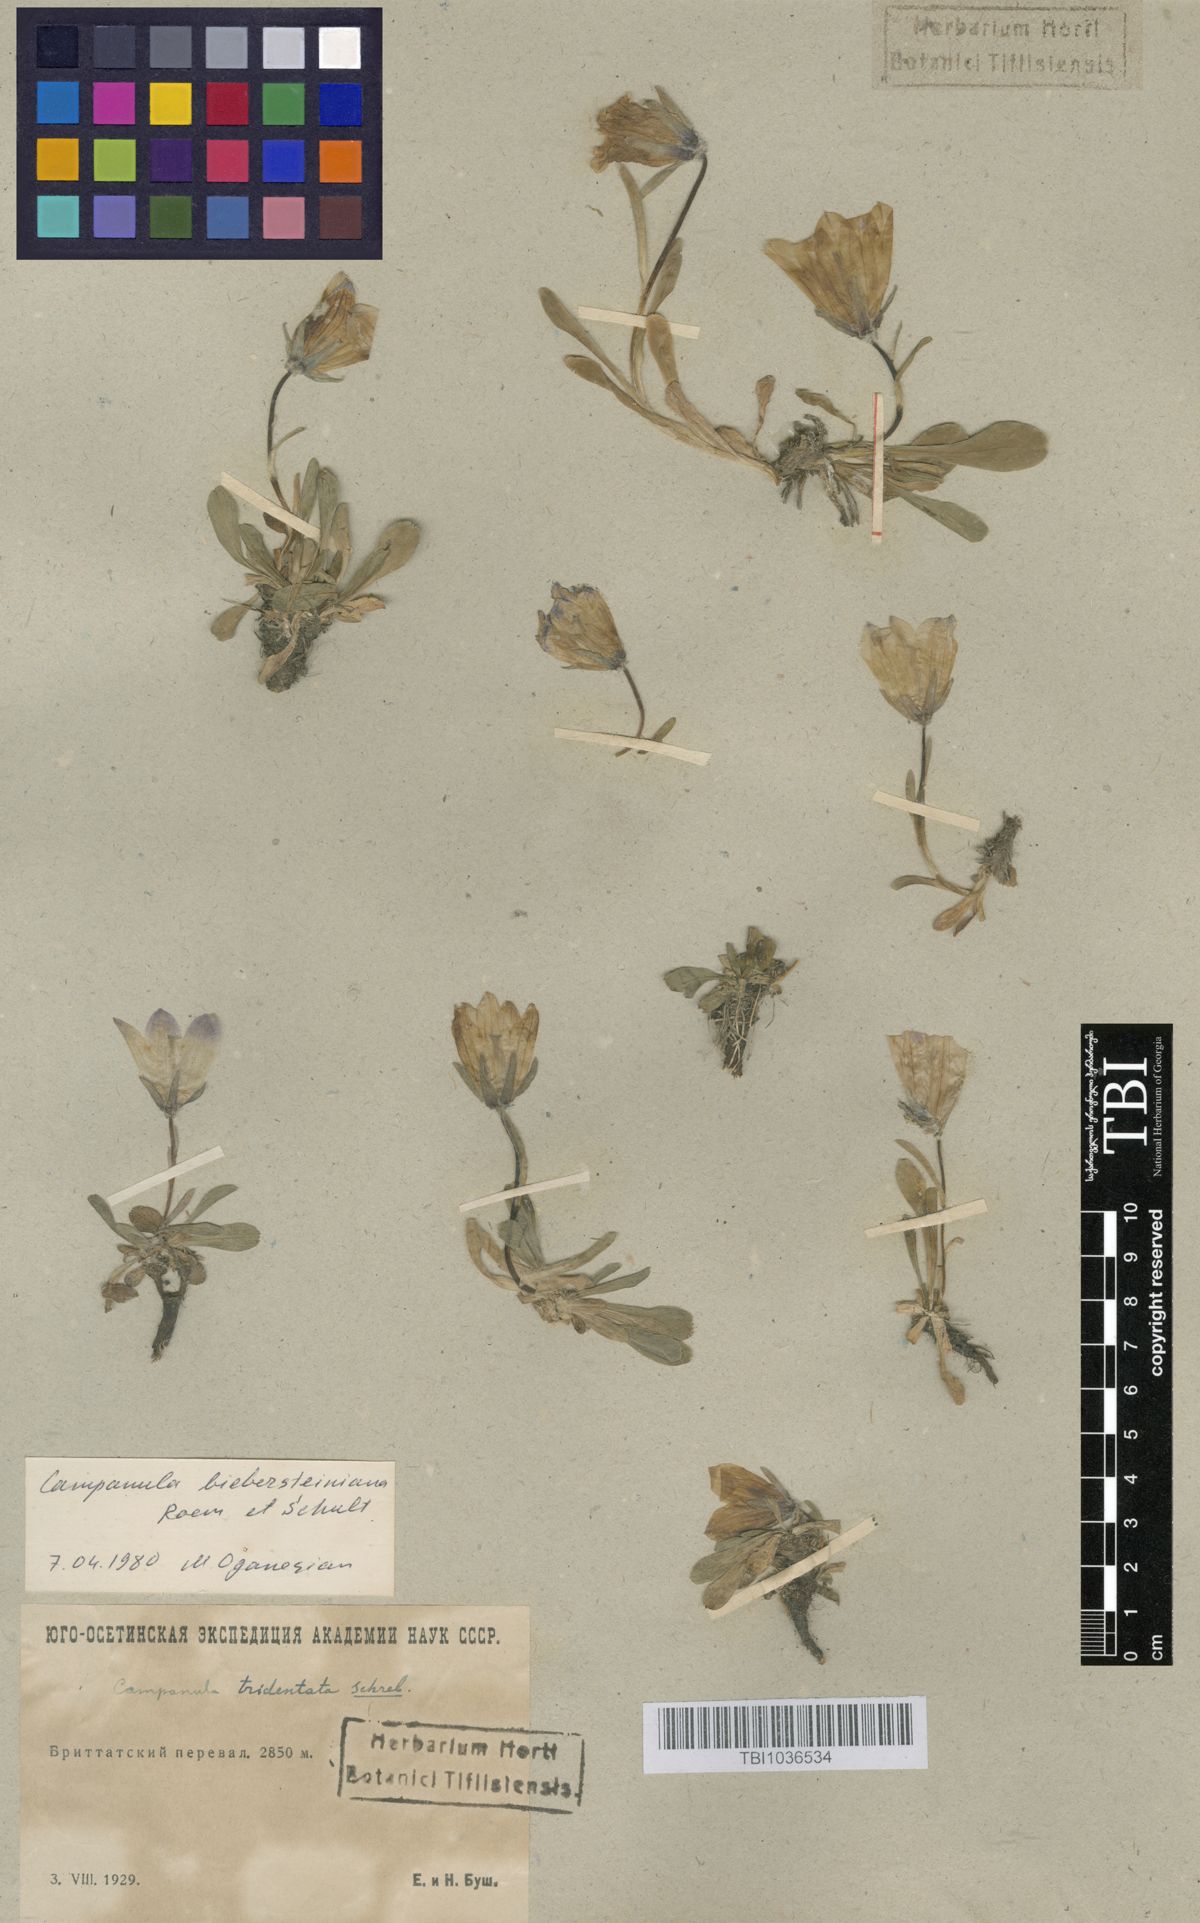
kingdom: Plantae
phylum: Tracheophyta
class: Magnoliopsida
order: Asterales
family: Campanulaceae
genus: Campanula
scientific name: Campanula tridentata
